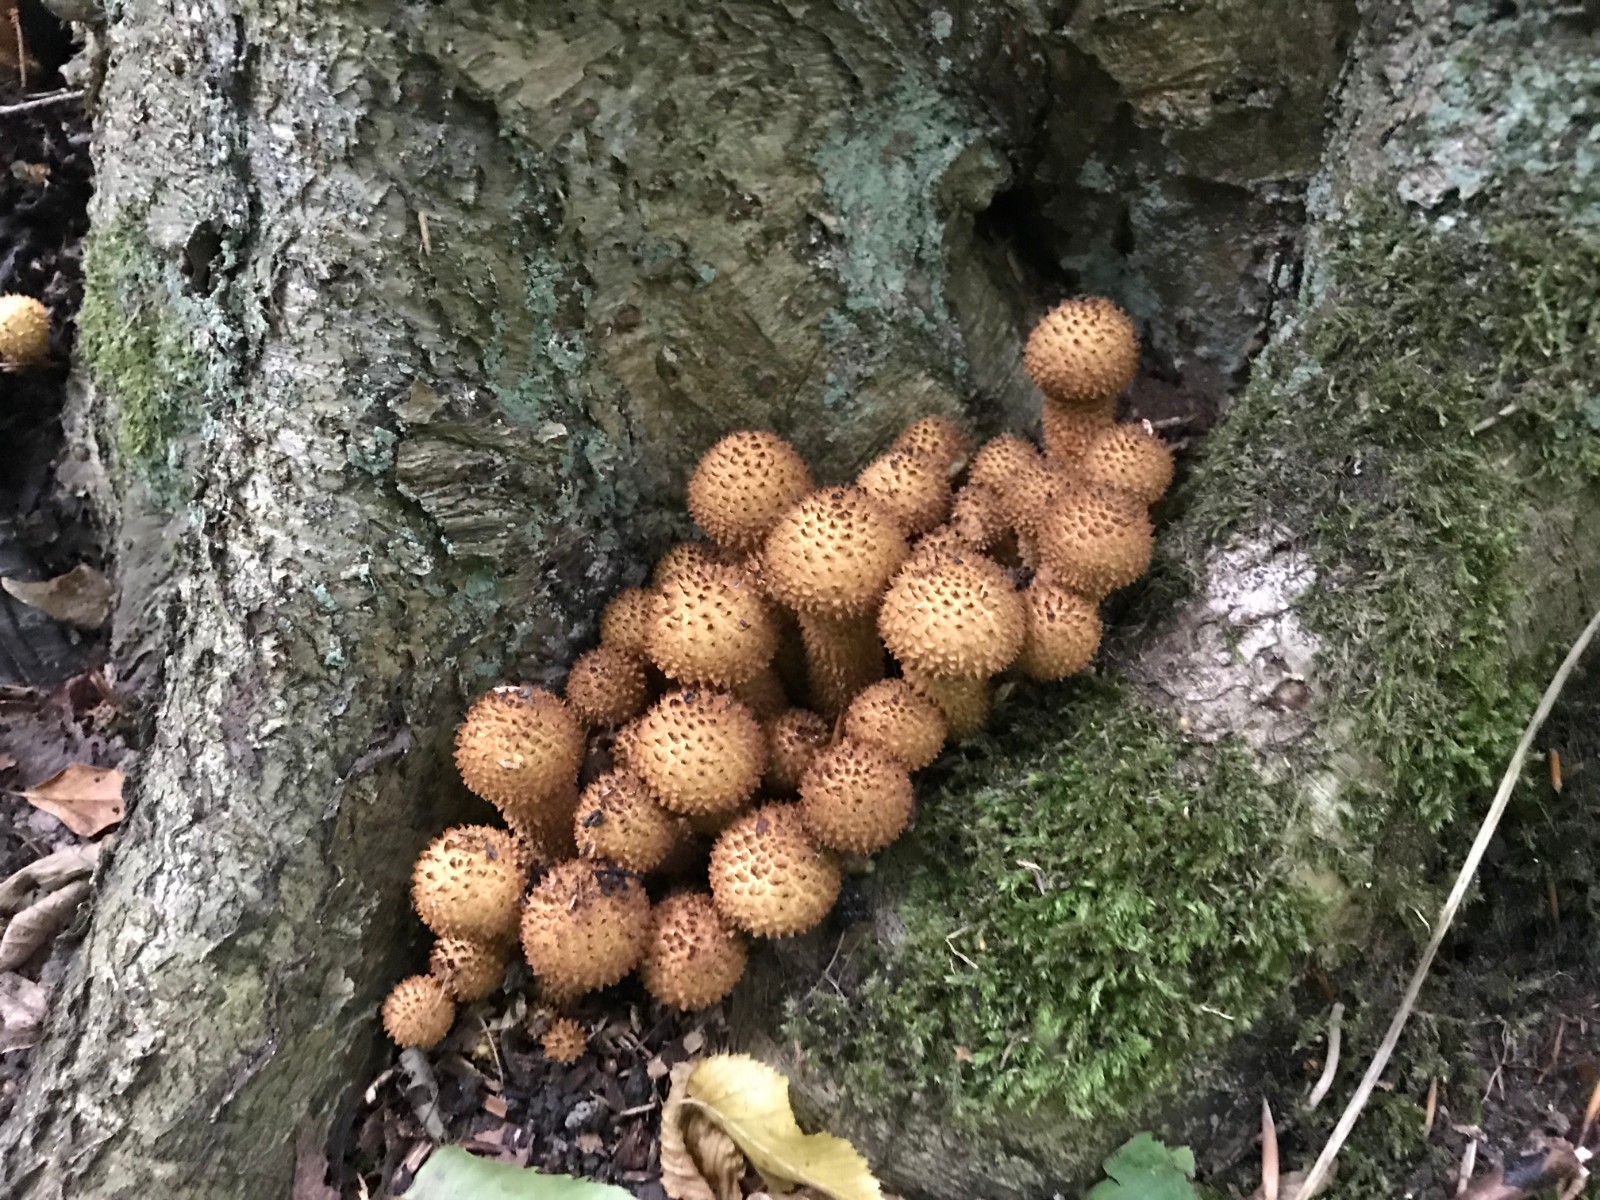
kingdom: Fungi
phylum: Basidiomycota
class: Agaricomycetes
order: Agaricales
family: Strophariaceae
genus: Pholiota
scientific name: Pholiota squarrosa
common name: krumskællet skælhat
